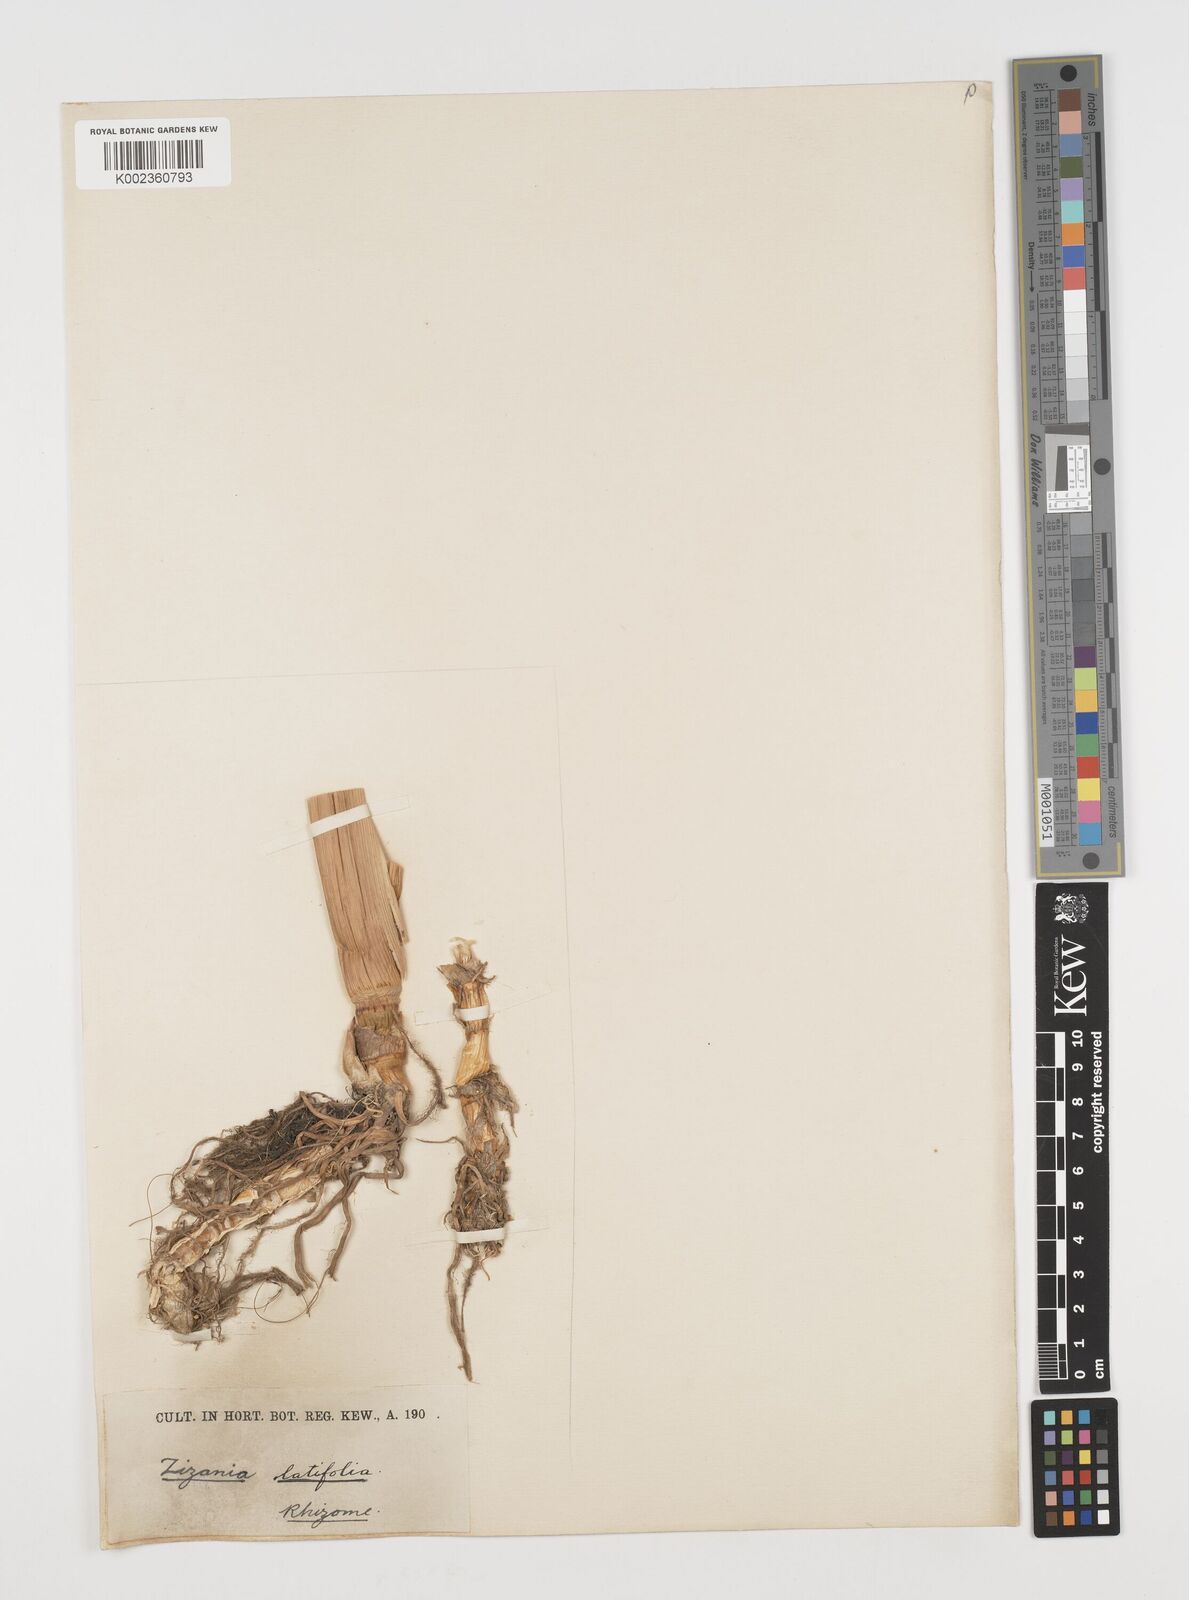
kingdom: Plantae
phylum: Tracheophyta
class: Liliopsida
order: Poales
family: Poaceae
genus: Zizania
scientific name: Zizania latifolia
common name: Manchurian wildrice
